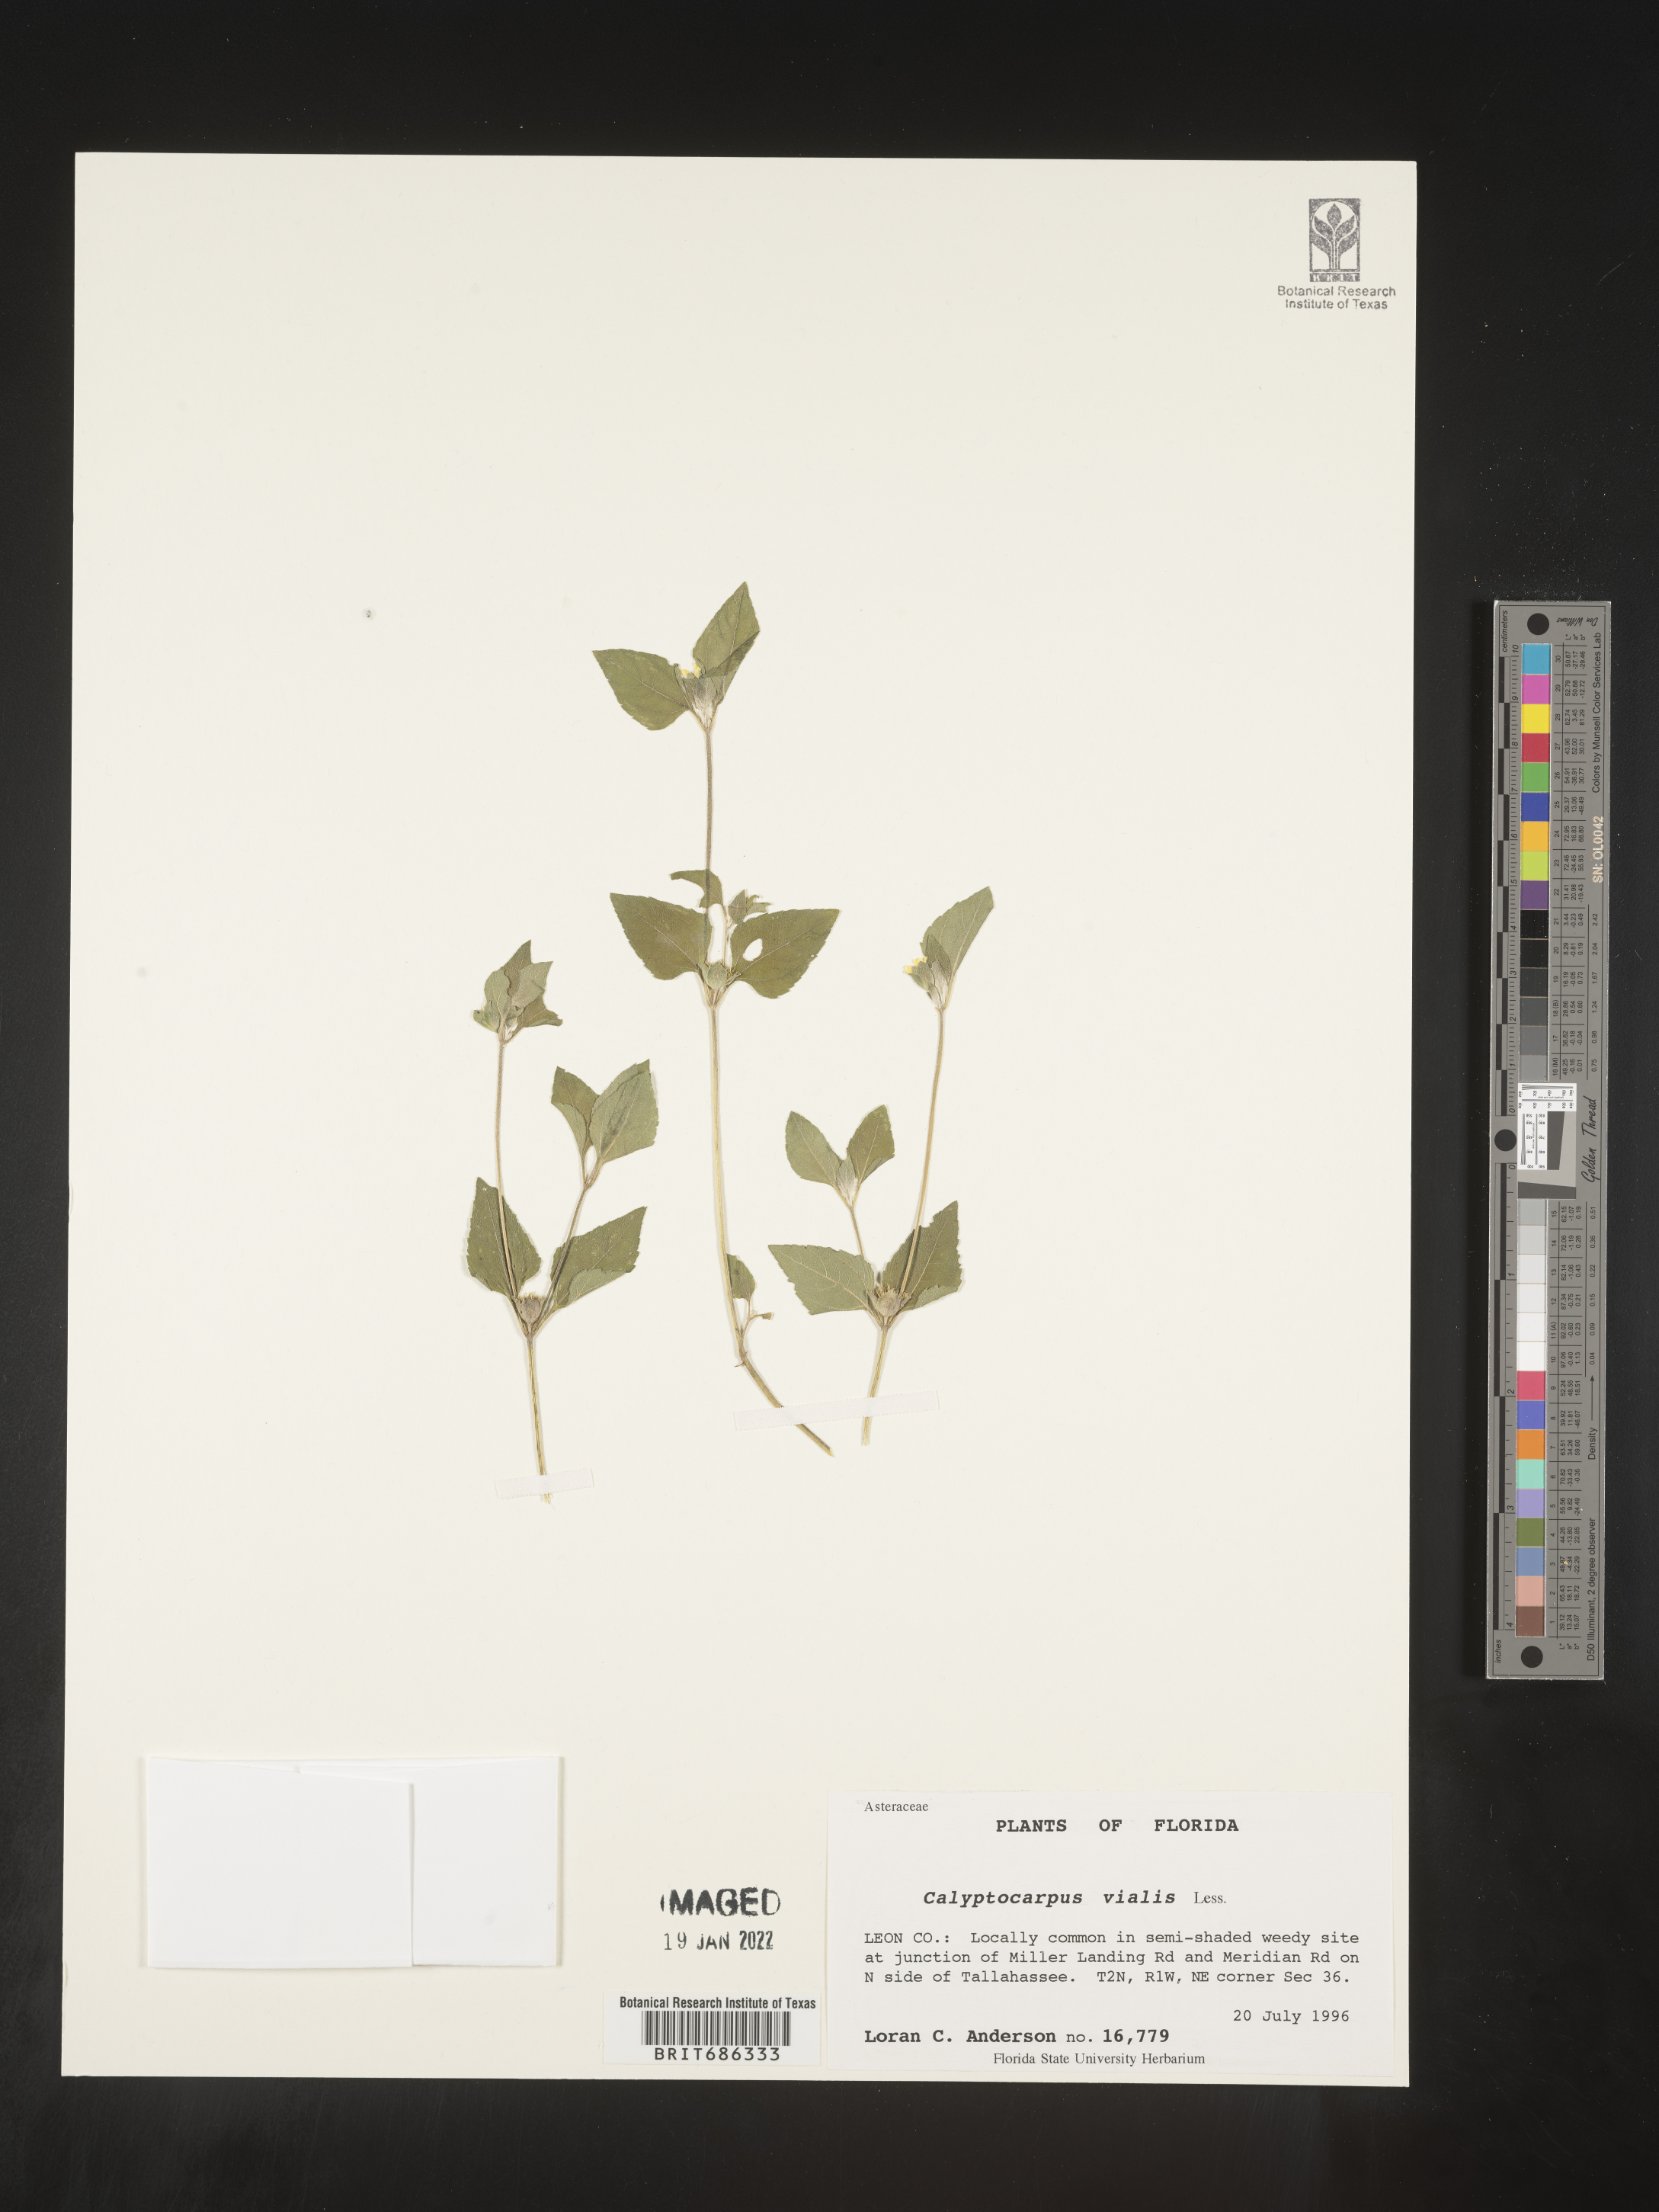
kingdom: Plantae
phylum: Tracheophyta
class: Magnoliopsida
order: Asterales
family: Asteraceae
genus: Calyptocarpus
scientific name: Calyptocarpus
